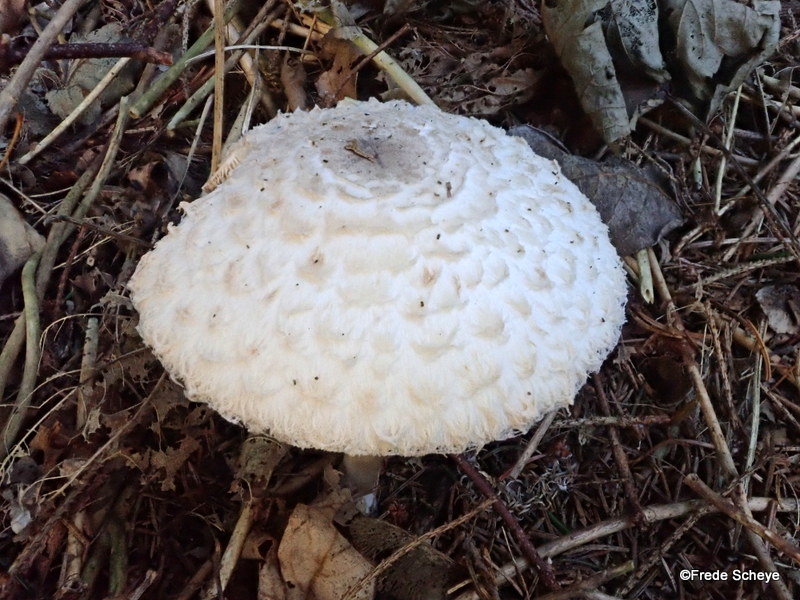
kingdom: Fungi
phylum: Basidiomycota
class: Agaricomycetes
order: Agaricales
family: Agaricaceae
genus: Leucoagaricus
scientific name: Leucoagaricus nympharum
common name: gran-silkehat
